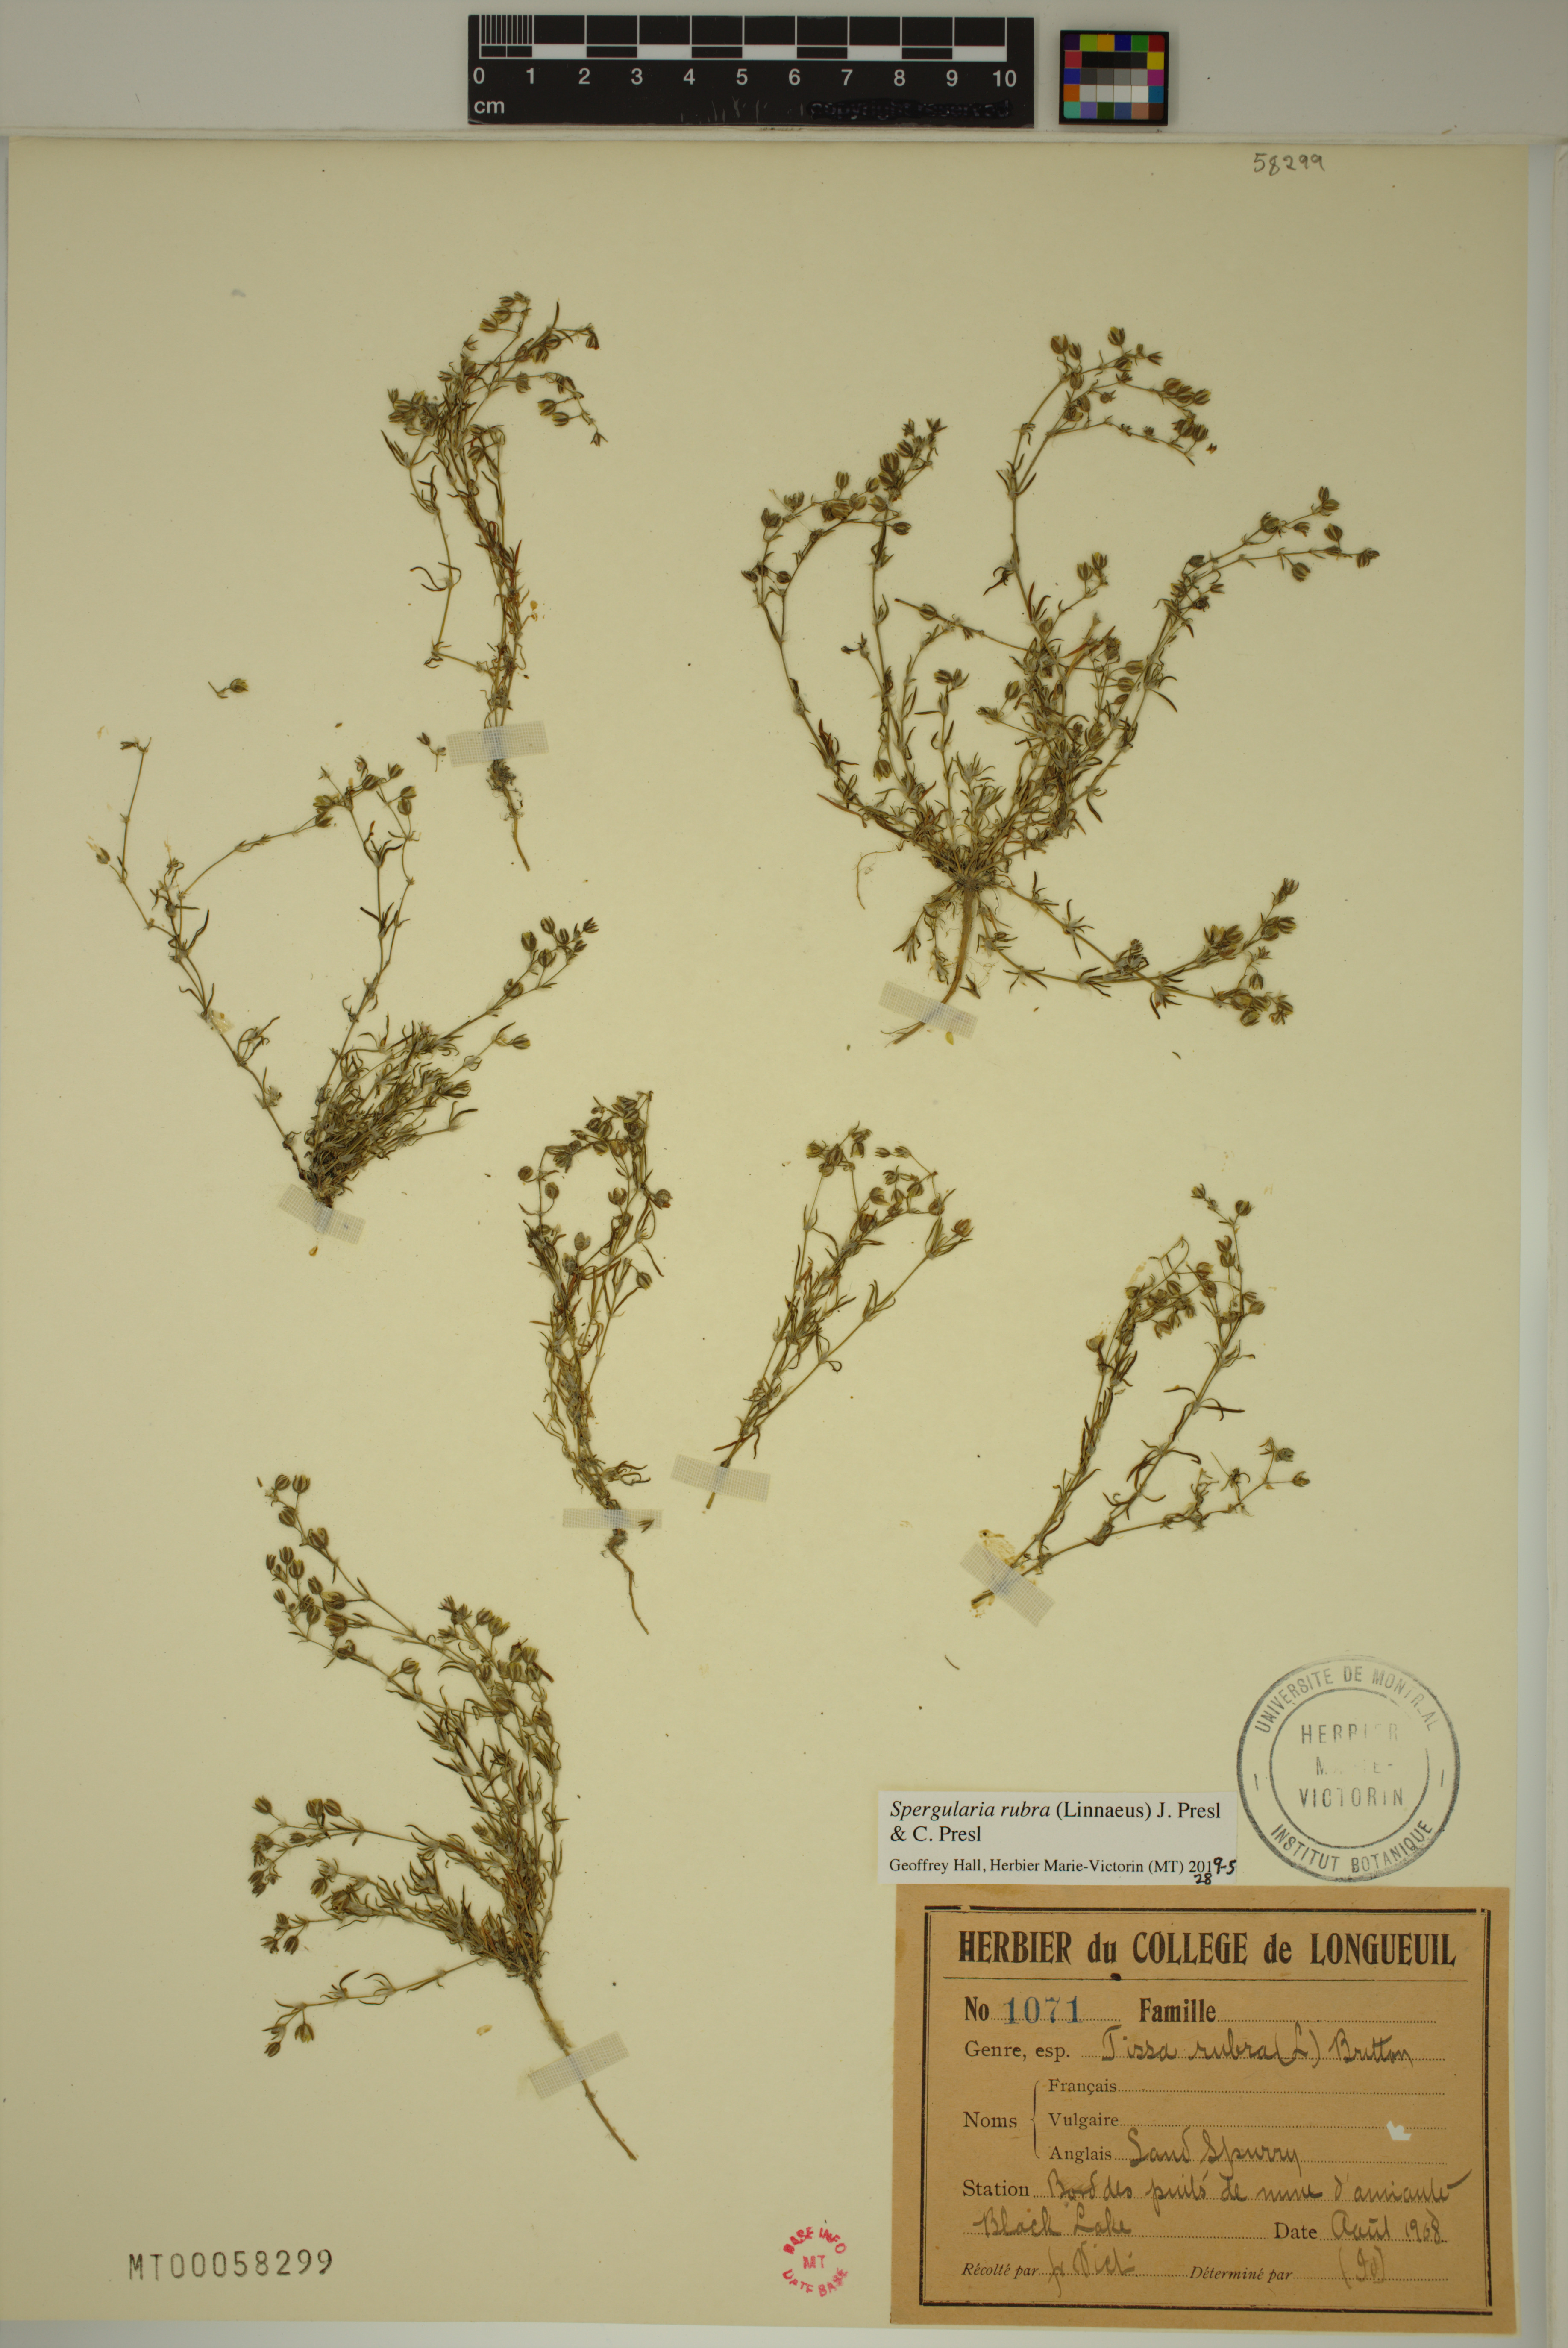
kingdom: Plantae
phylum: Tracheophyta
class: Magnoliopsida
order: Caryophyllales
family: Caryophyllaceae
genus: Spergularia
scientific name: Spergularia rubra
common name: Red sand-spurrey
